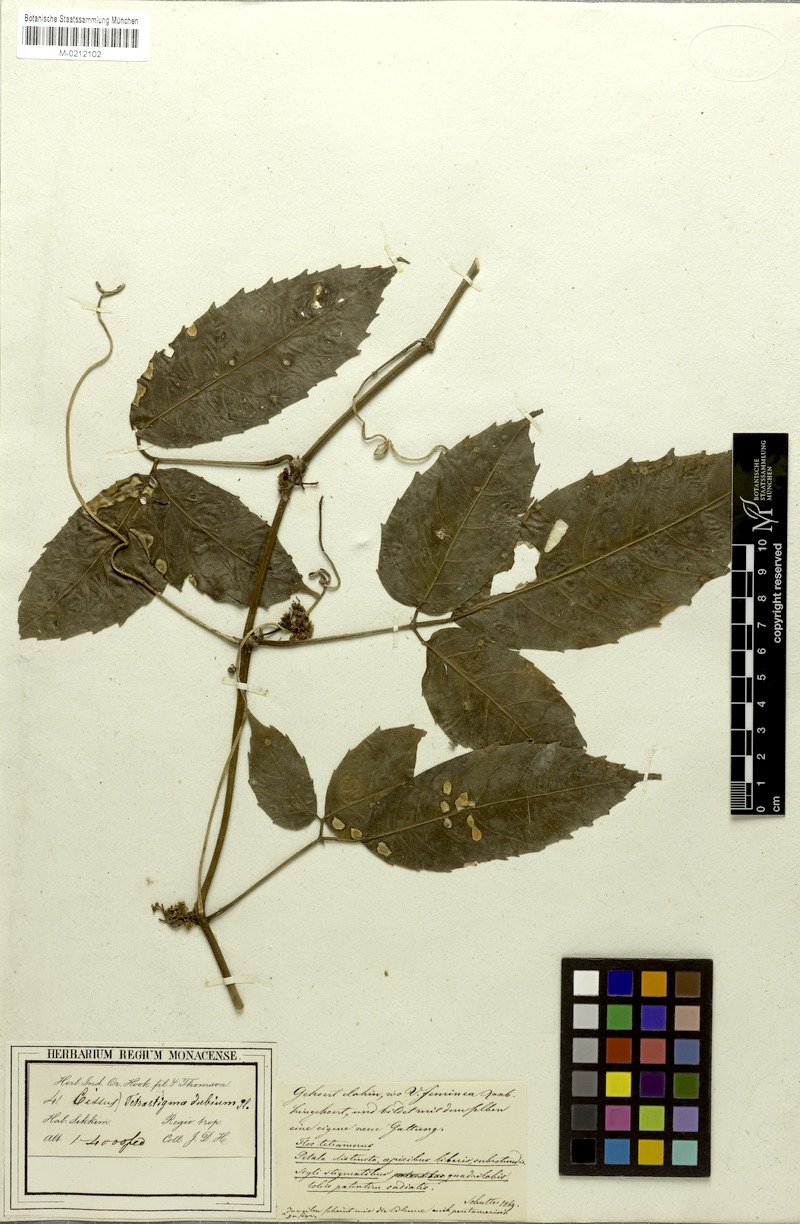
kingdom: Plantae
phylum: Tracheophyta
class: Magnoliopsida
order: Vitales
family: Vitaceae
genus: Tetrastigma
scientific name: Tetrastigma dubium
